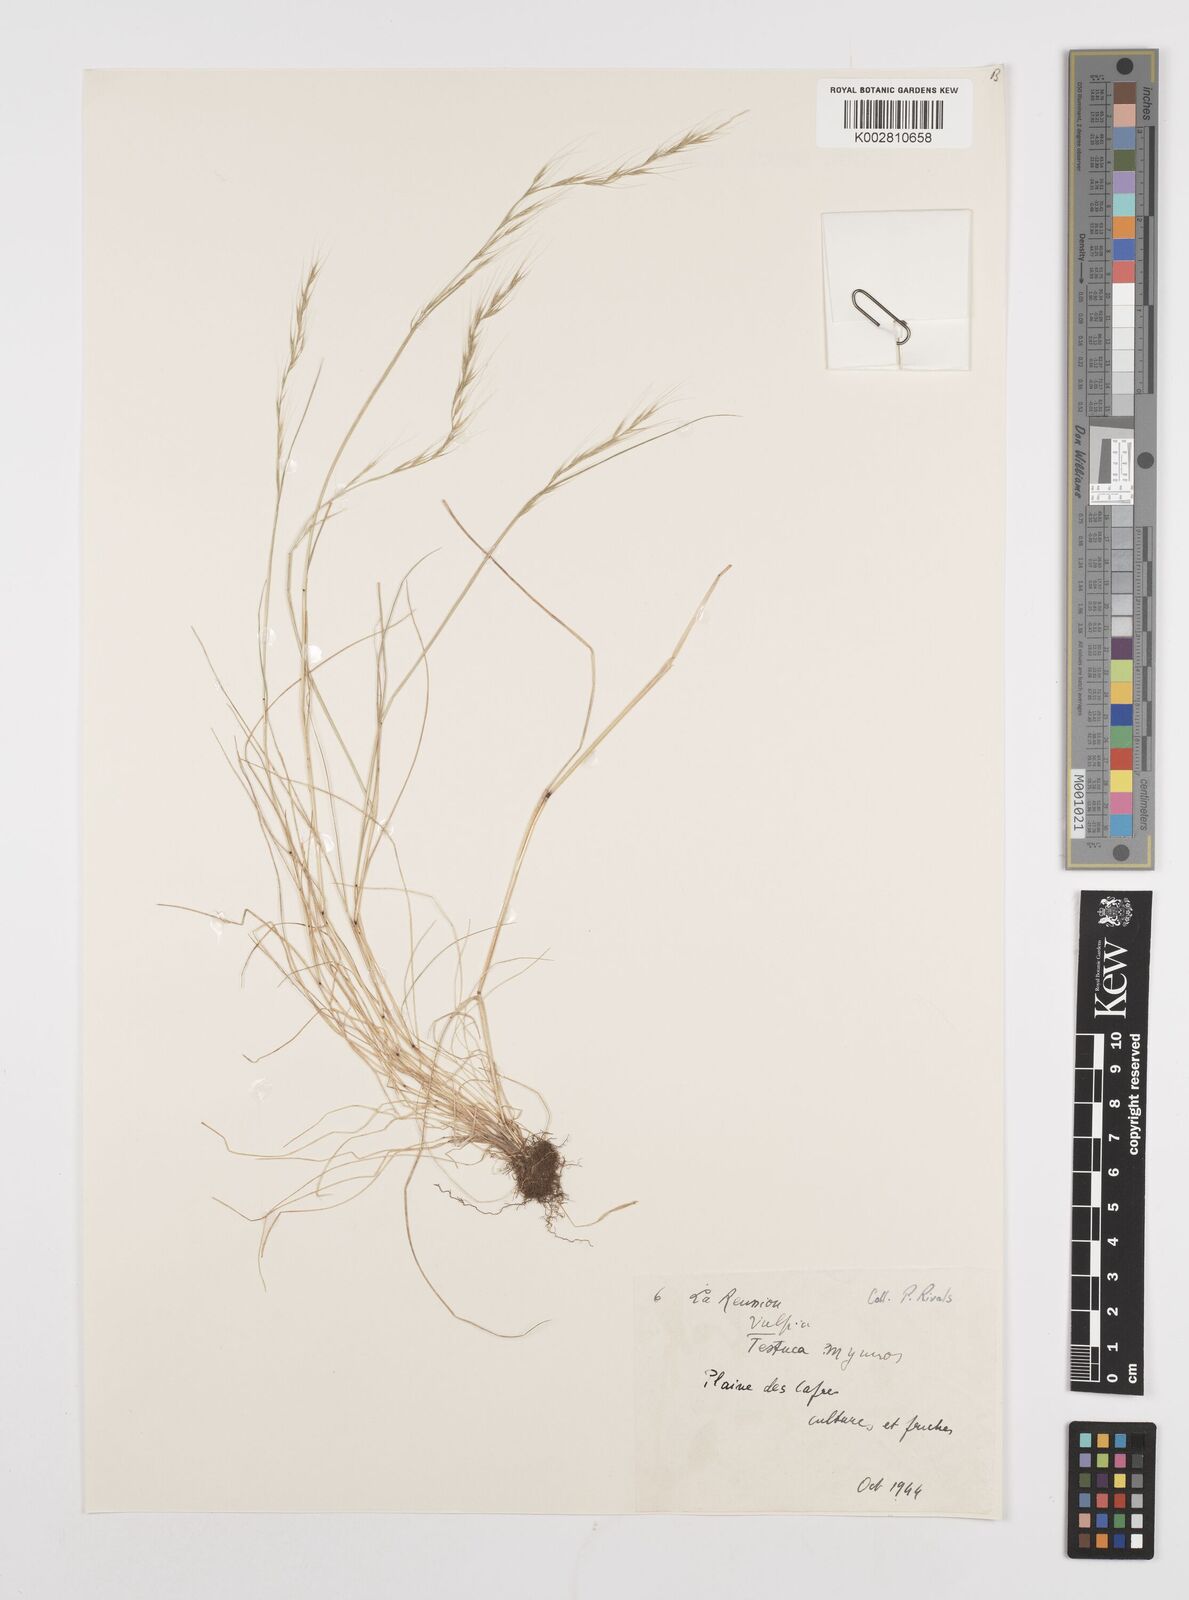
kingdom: Plantae
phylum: Tracheophyta
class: Liliopsida
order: Poales
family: Poaceae
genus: Festuca
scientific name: Festuca myuros
